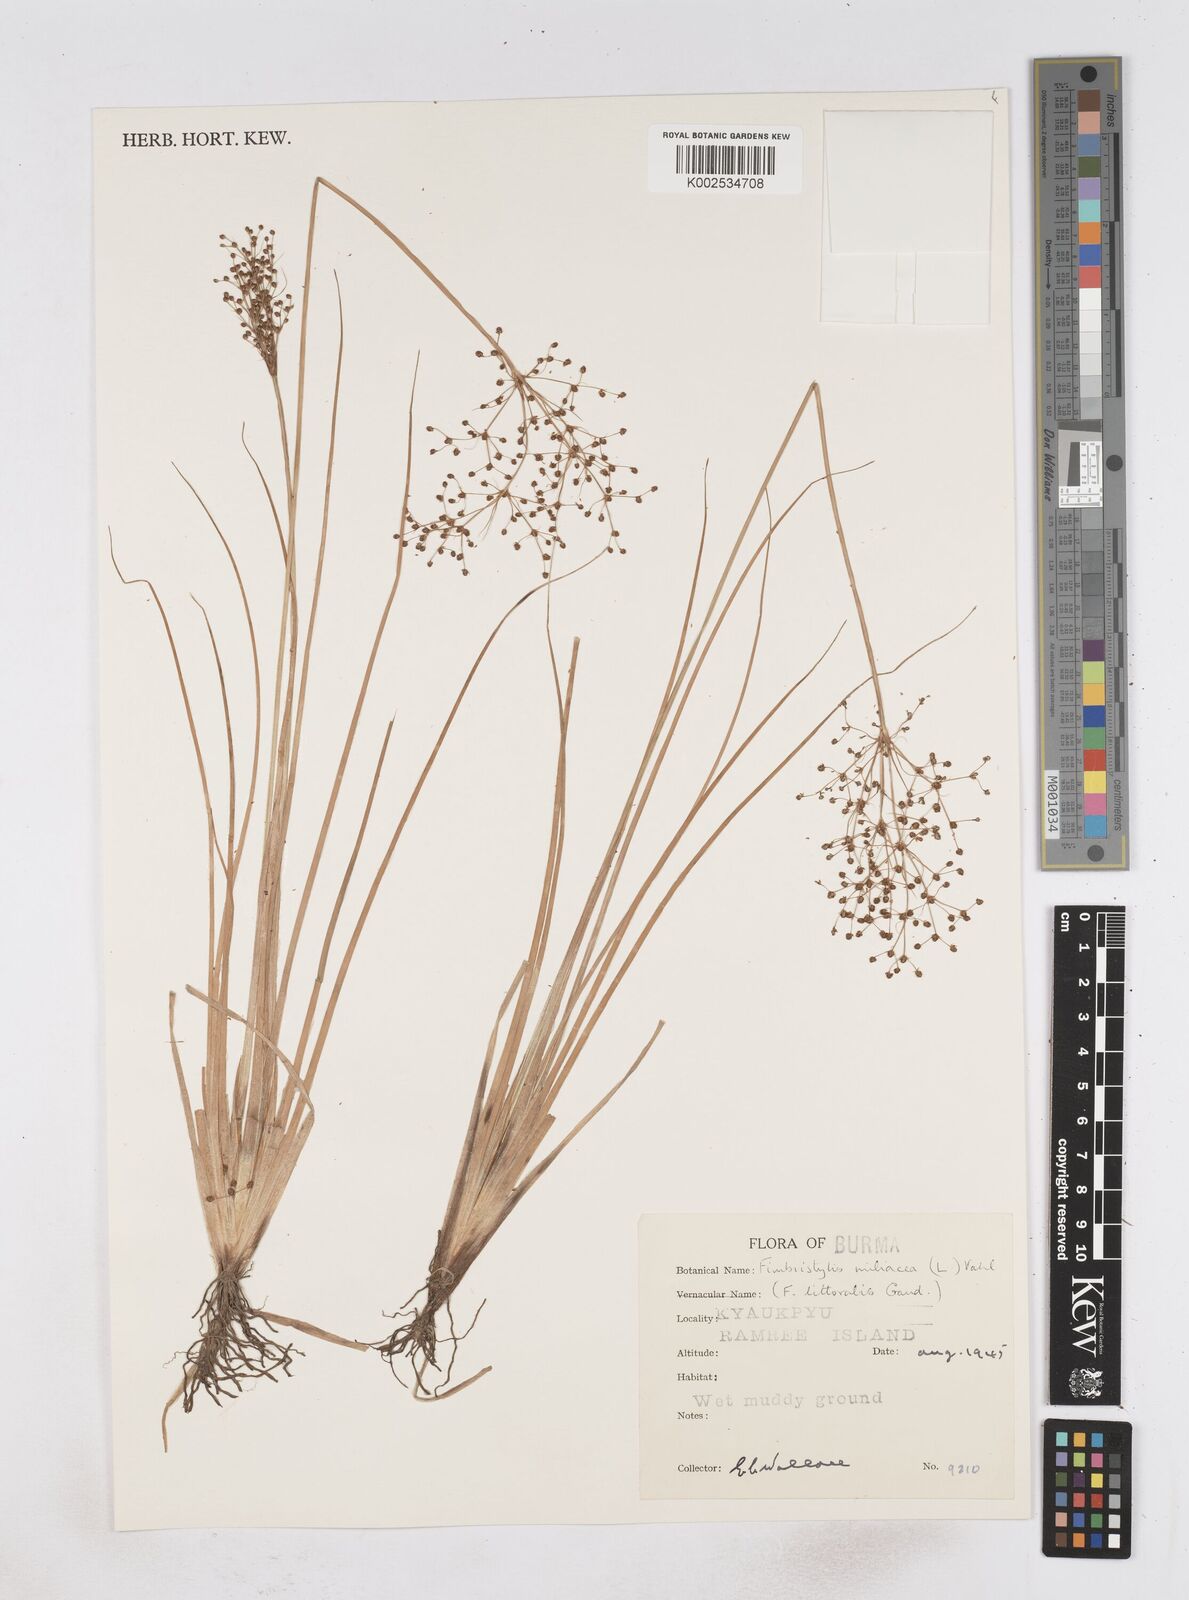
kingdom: Plantae
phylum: Tracheophyta
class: Liliopsida
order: Poales
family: Cyperaceae
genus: Fimbristylis
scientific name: Fimbristylis littoralis
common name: Fimbry
